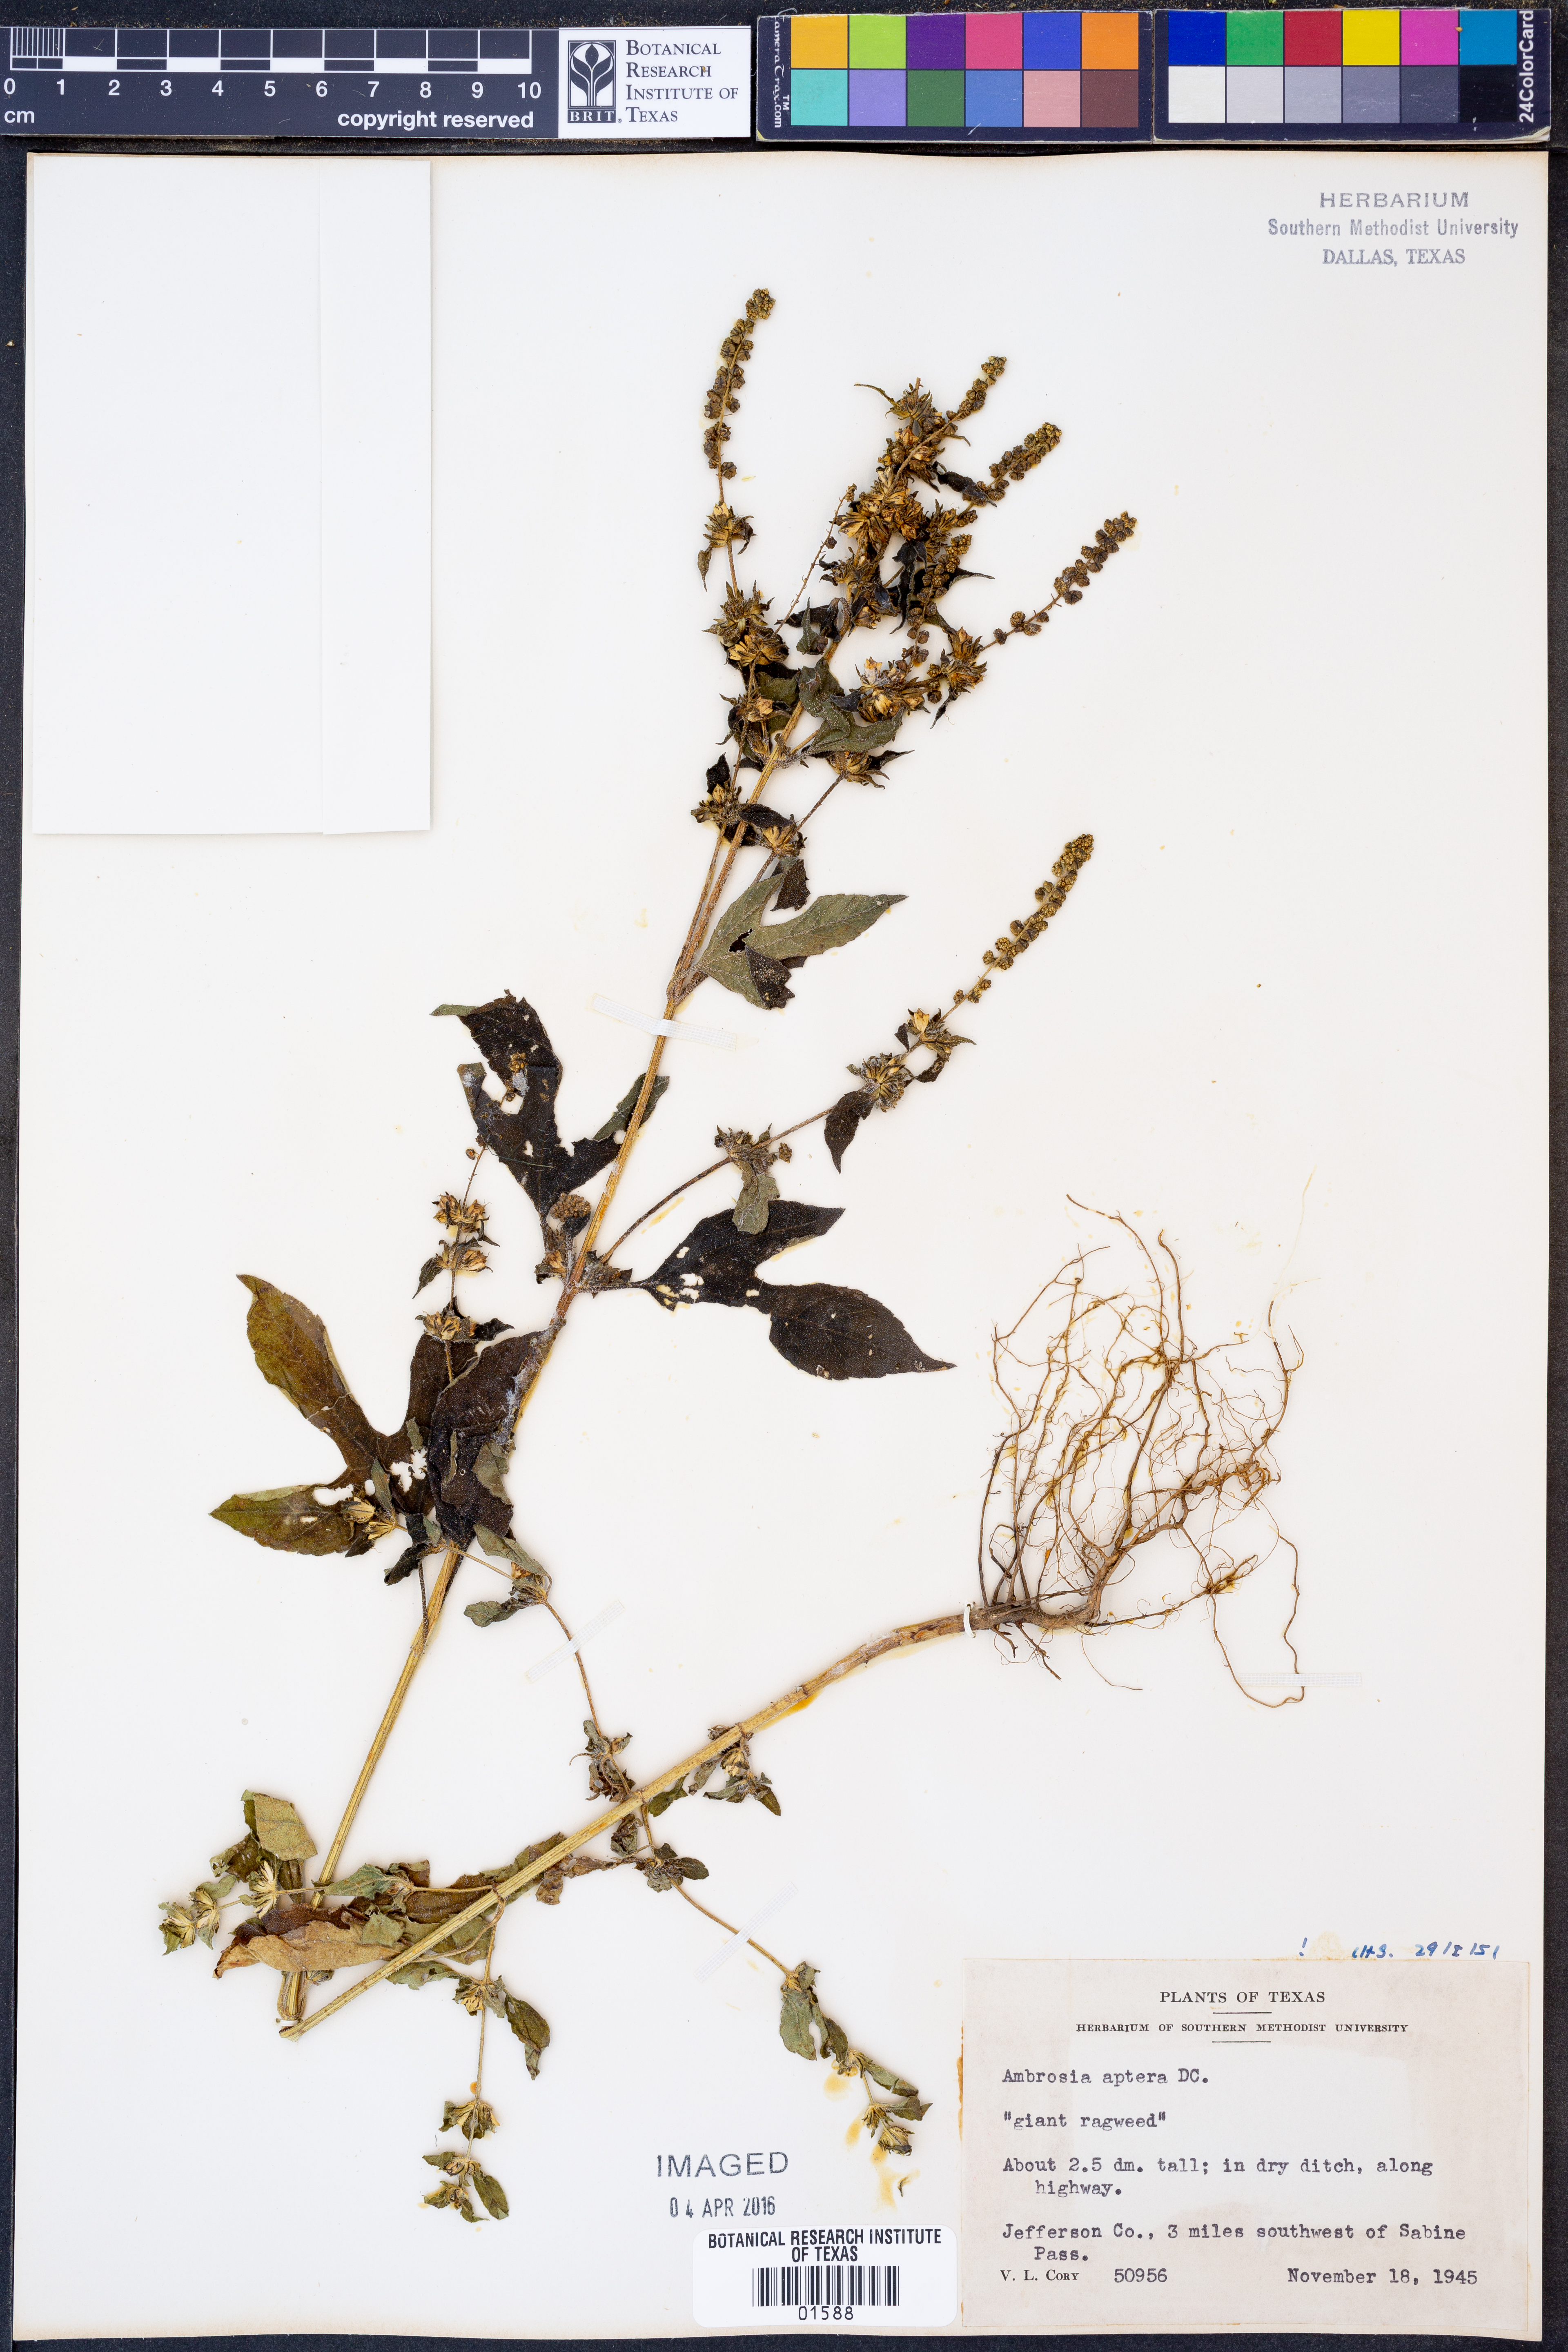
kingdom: Plantae
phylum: Tracheophyta
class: Magnoliopsida
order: Asterales
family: Asteraceae
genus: Ambrosia
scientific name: Ambrosia trifida
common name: Giant ragweed
